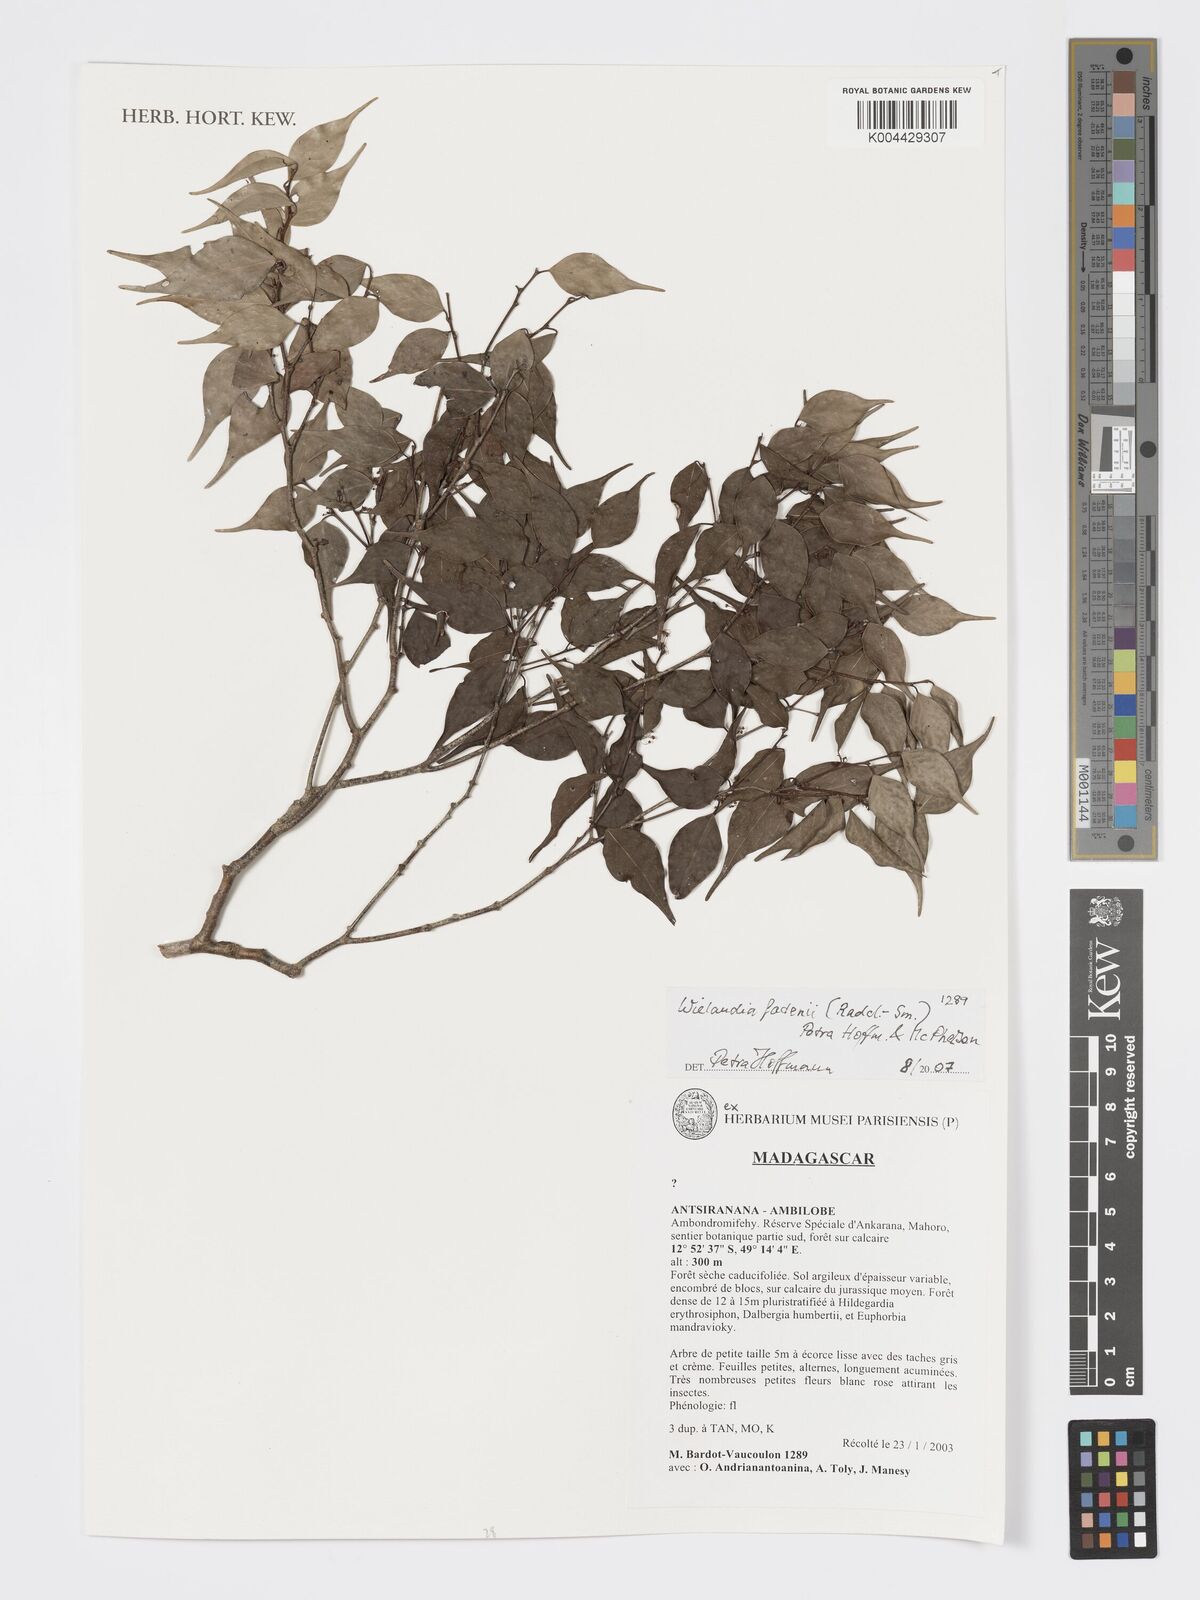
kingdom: Plantae
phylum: Tracheophyta
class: Magnoliopsida
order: Malpighiales
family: Phyllanthaceae
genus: Wielandia
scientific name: Wielandia fadenii
